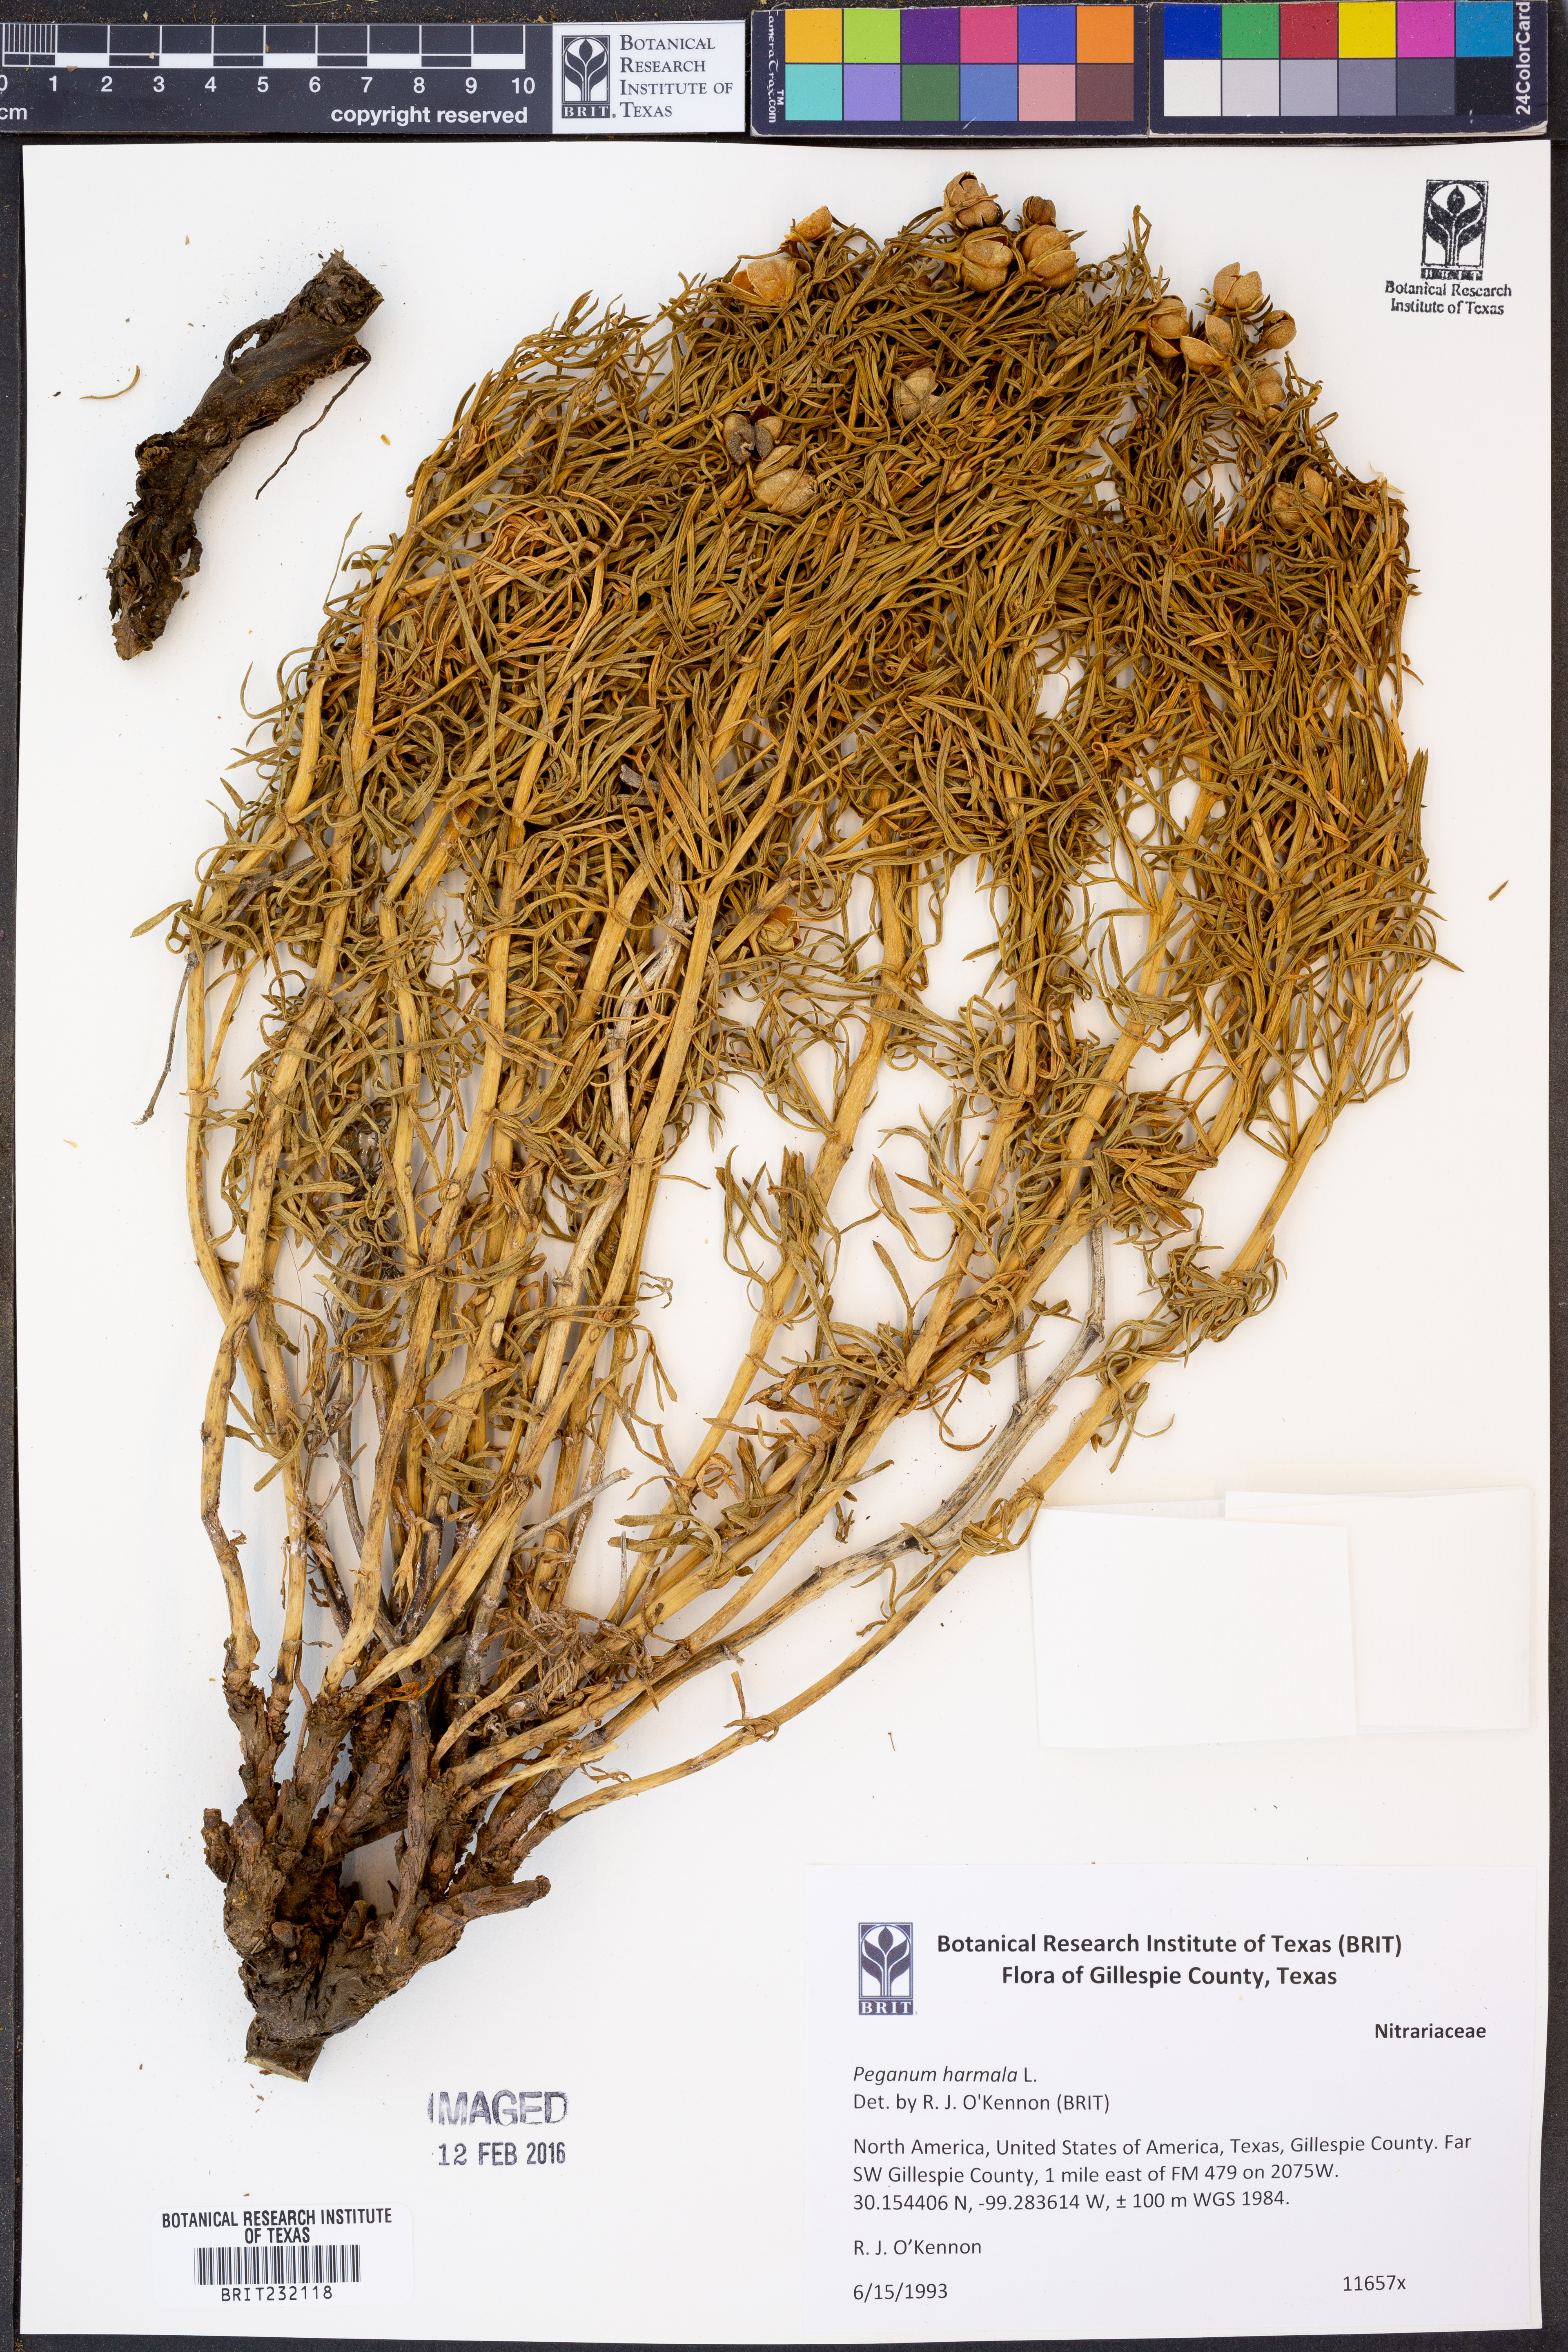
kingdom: Plantae
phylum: Tracheophyta
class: Magnoliopsida
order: Sapindales
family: Tetradiclidaceae
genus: Peganum
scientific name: Peganum harmala
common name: Harmal peganum
